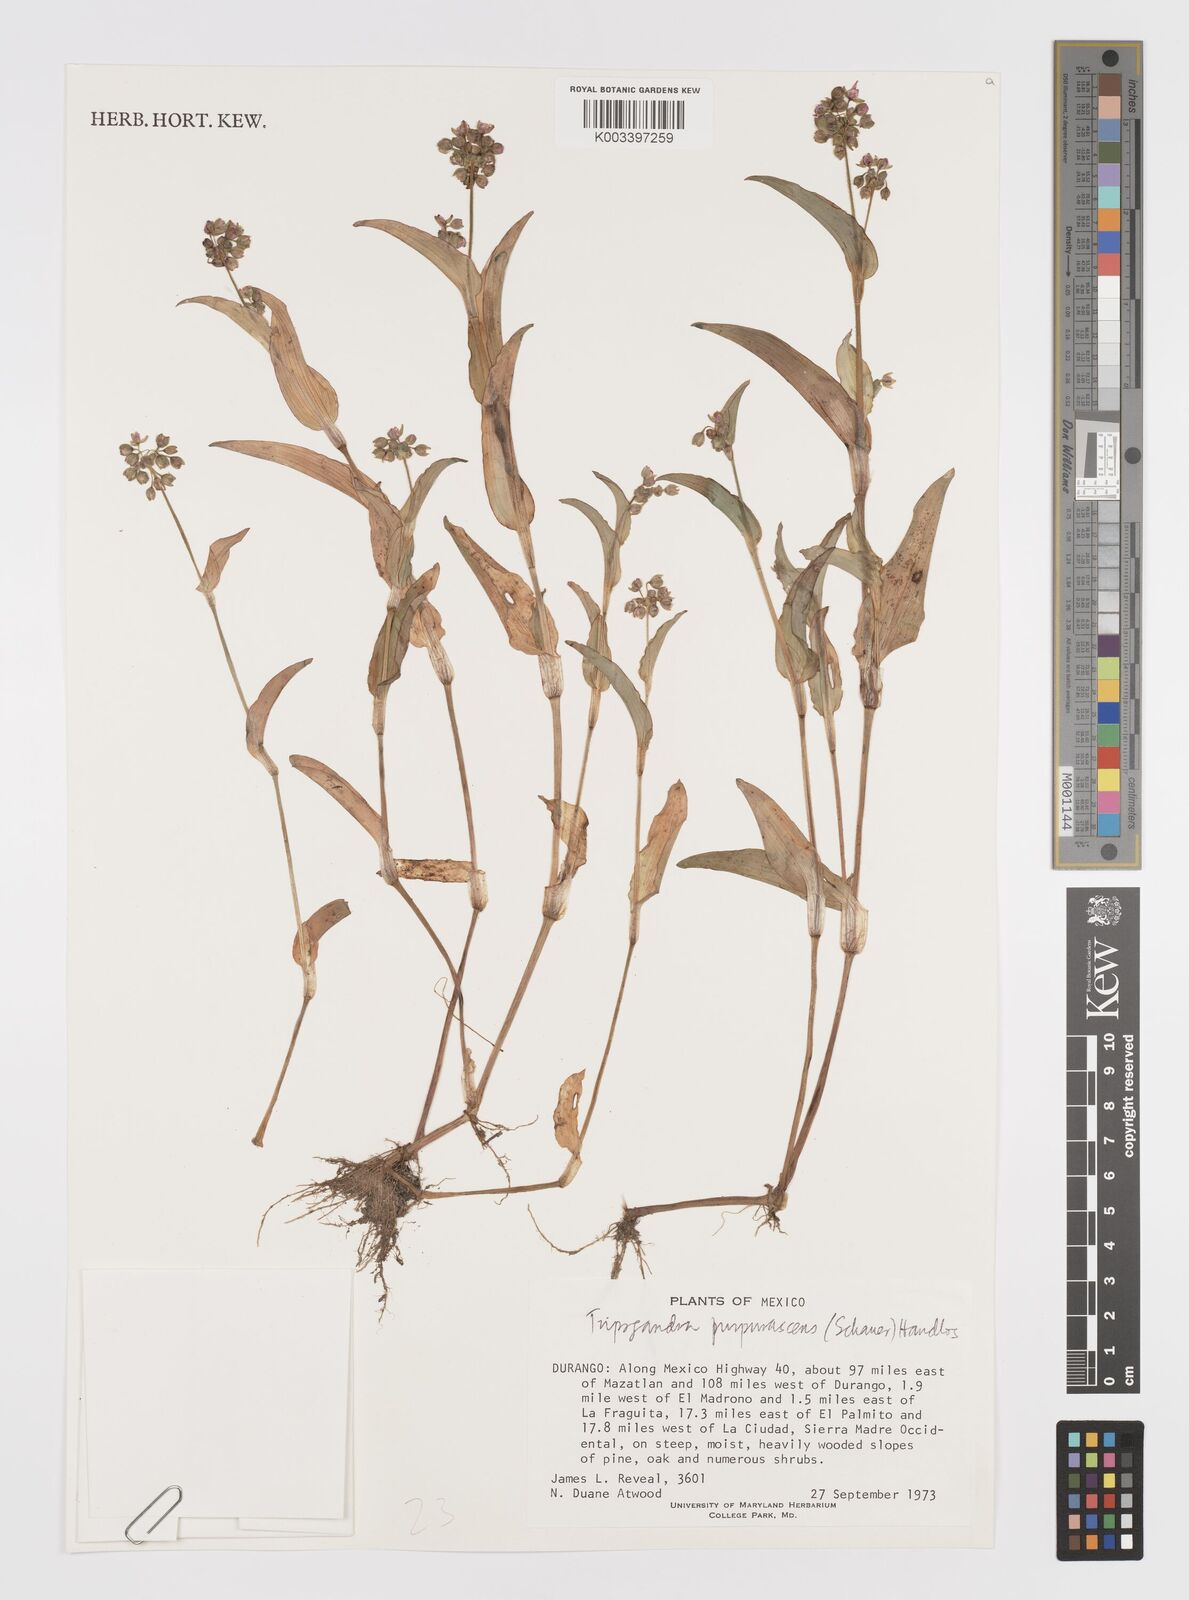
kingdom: Plantae
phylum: Tracheophyta
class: Liliopsida
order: Commelinales
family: Commelinaceae
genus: Callisia
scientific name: Callisia purpurascens
